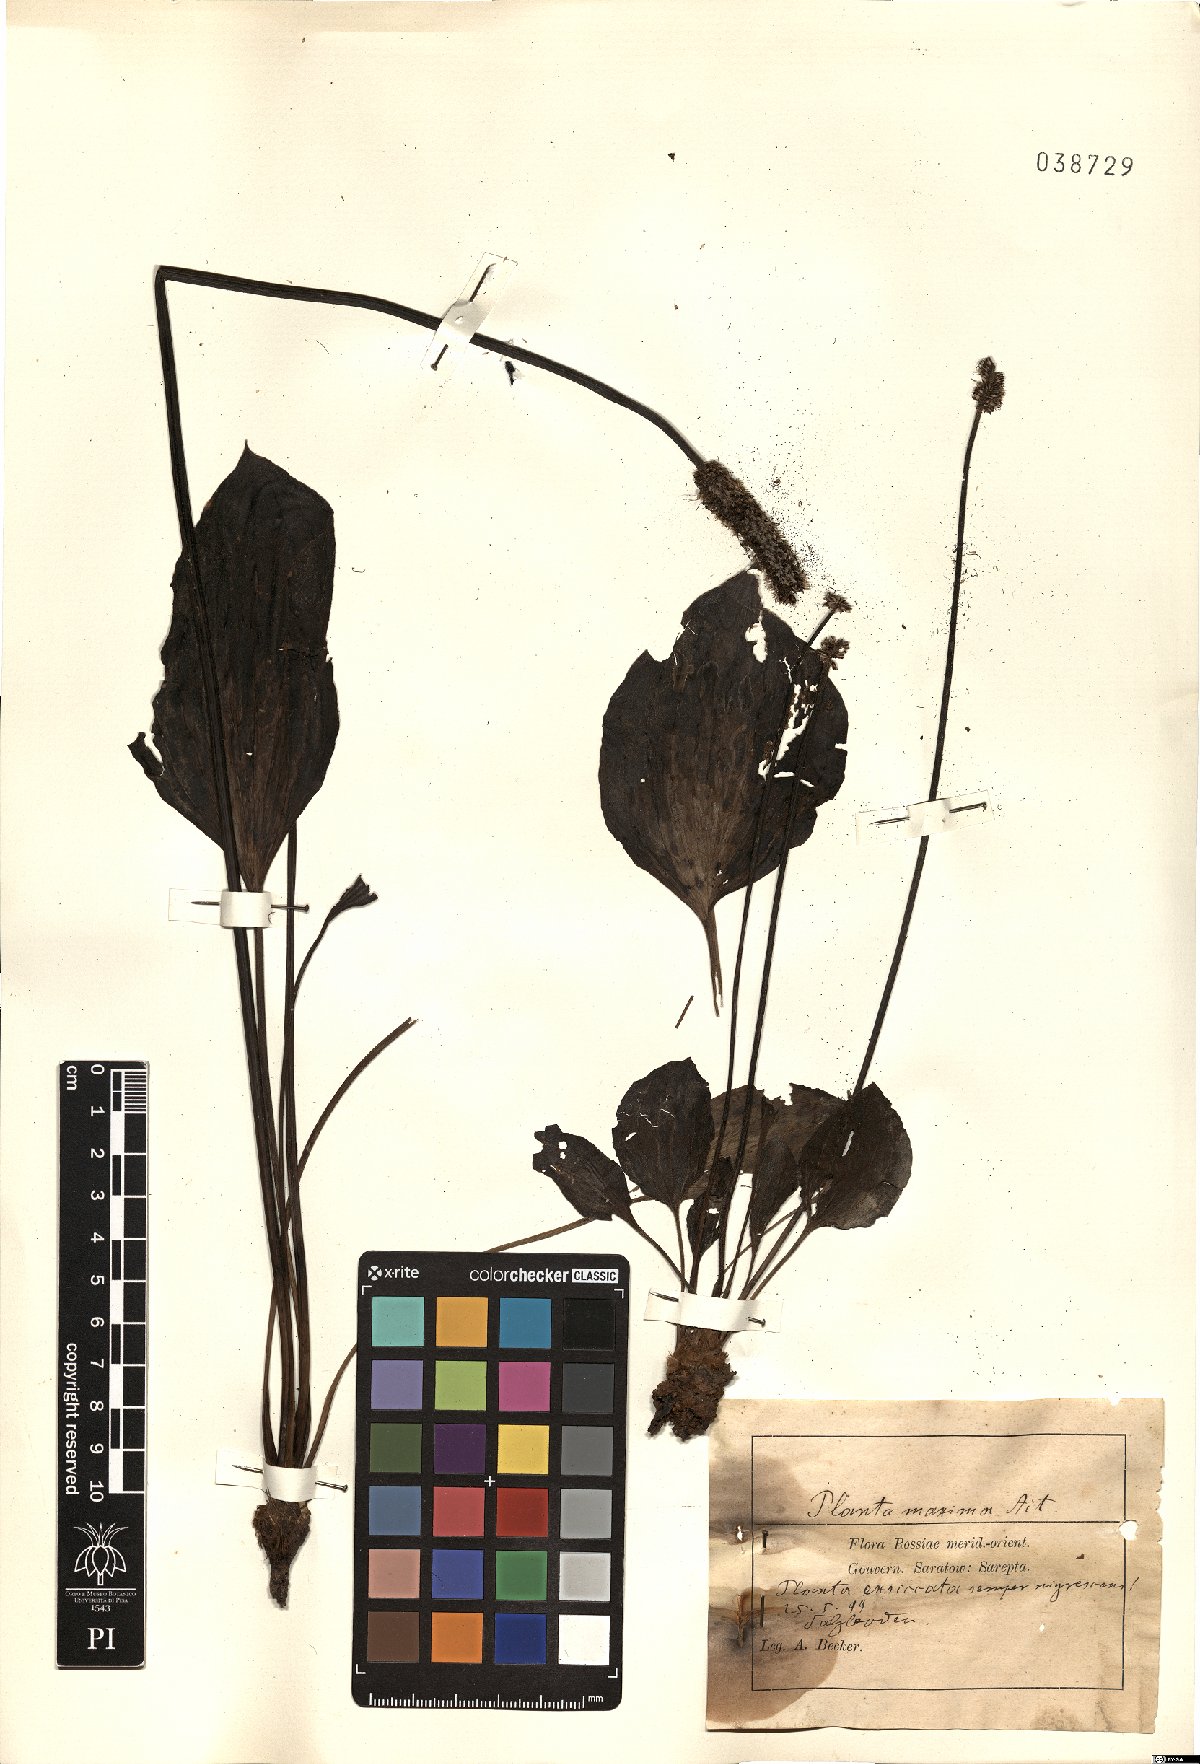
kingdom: Plantae
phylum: Tracheophyta
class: Magnoliopsida
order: Lamiales
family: Plantaginaceae
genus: Plantago
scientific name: Plantago maxima
